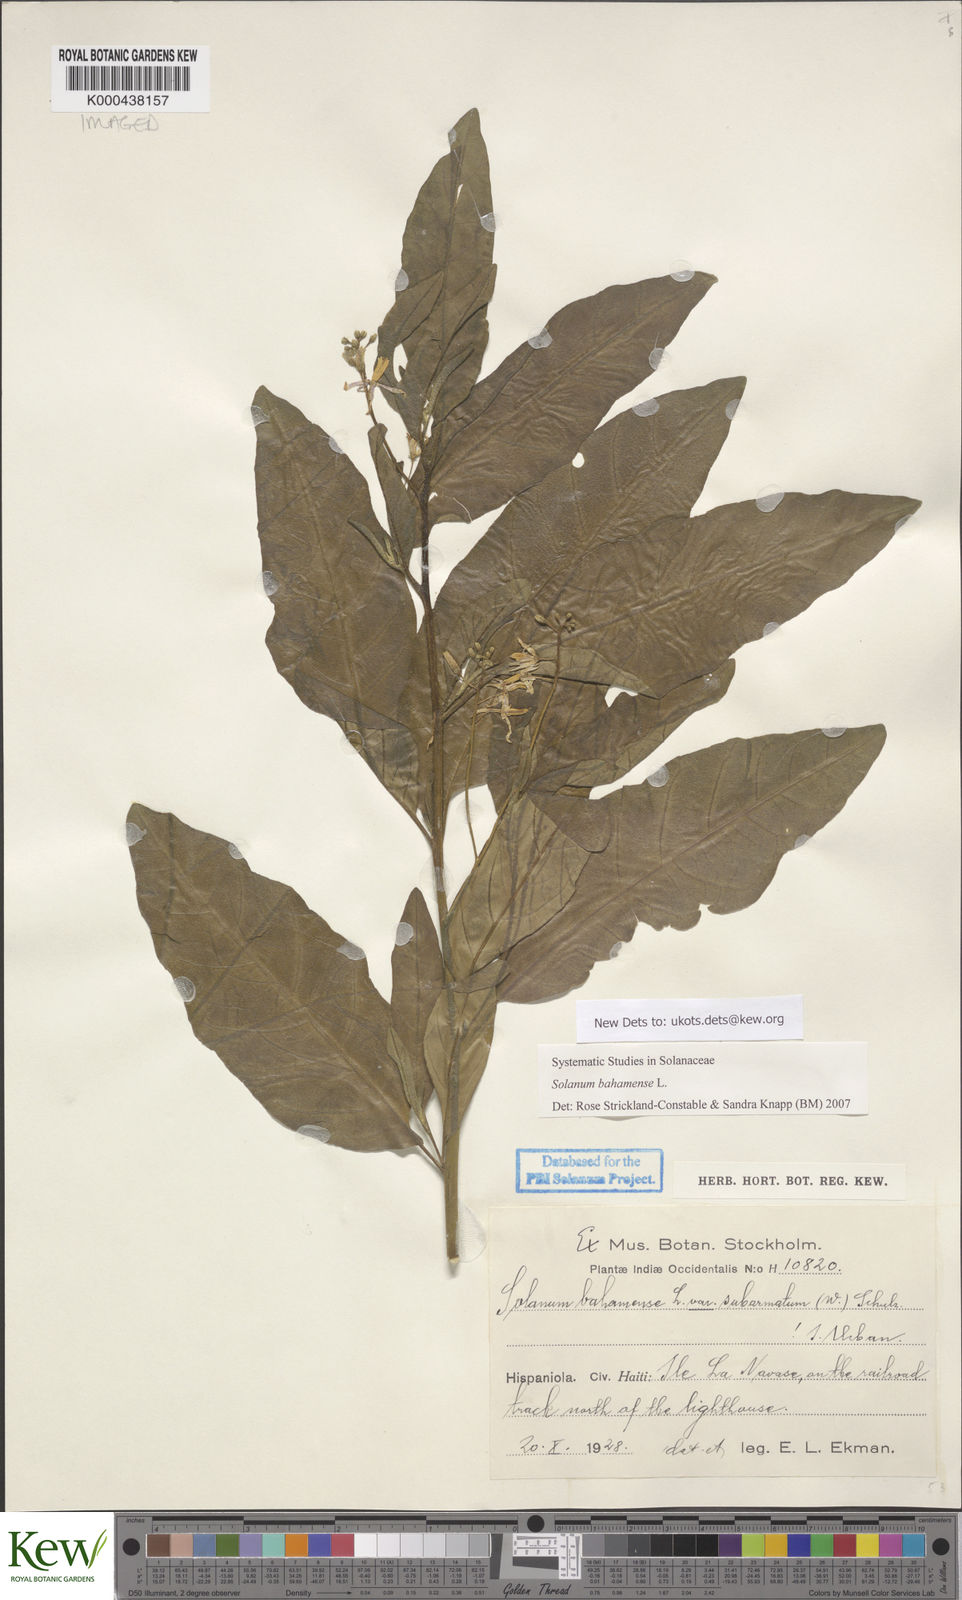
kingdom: Plantae
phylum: Tracheophyta
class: Magnoliopsida
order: Solanales
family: Solanaceae
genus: Solanum
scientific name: Solanum bahamense
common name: Canker-berry
